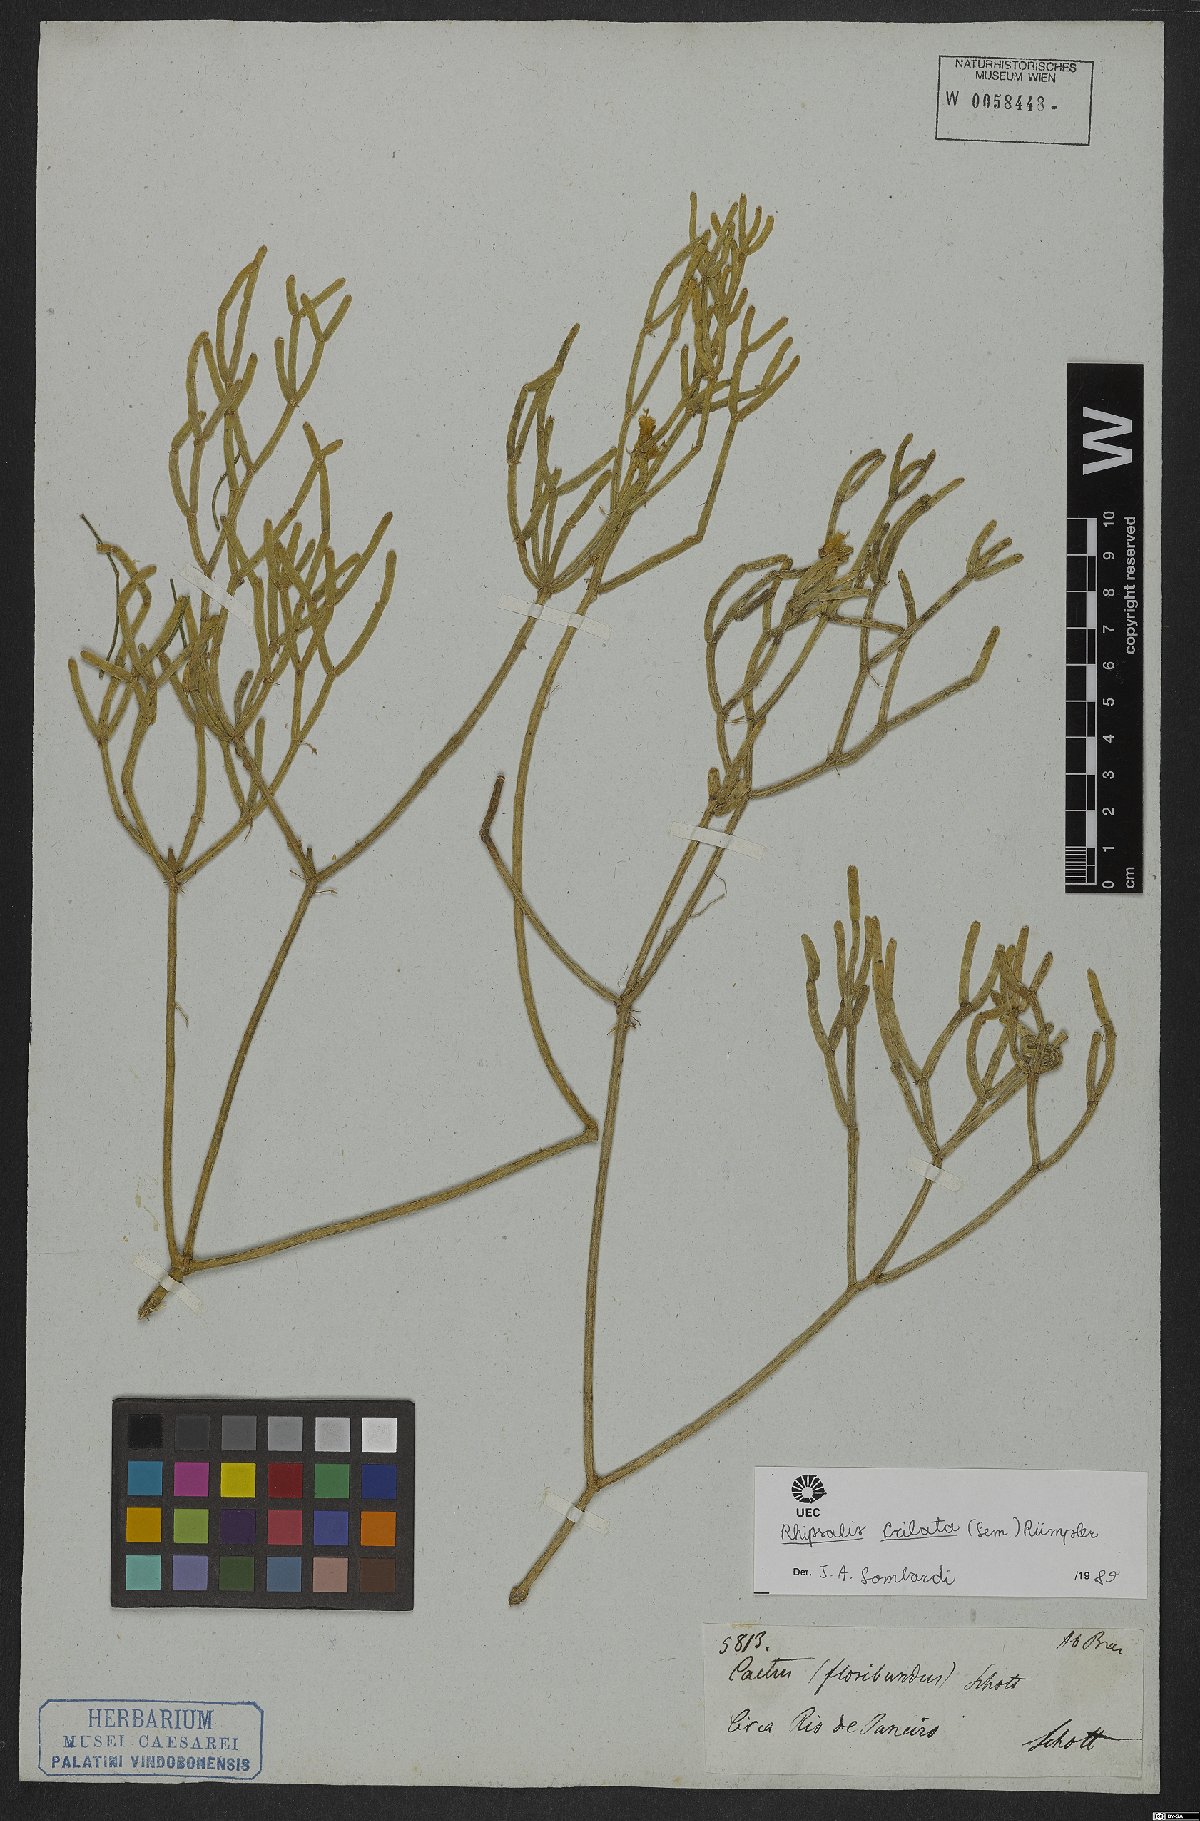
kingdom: Plantae
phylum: Tracheophyta
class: Magnoliopsida
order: Caryophyllales
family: Cactaceae
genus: Rhipsalis
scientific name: Rhipsalis teres
